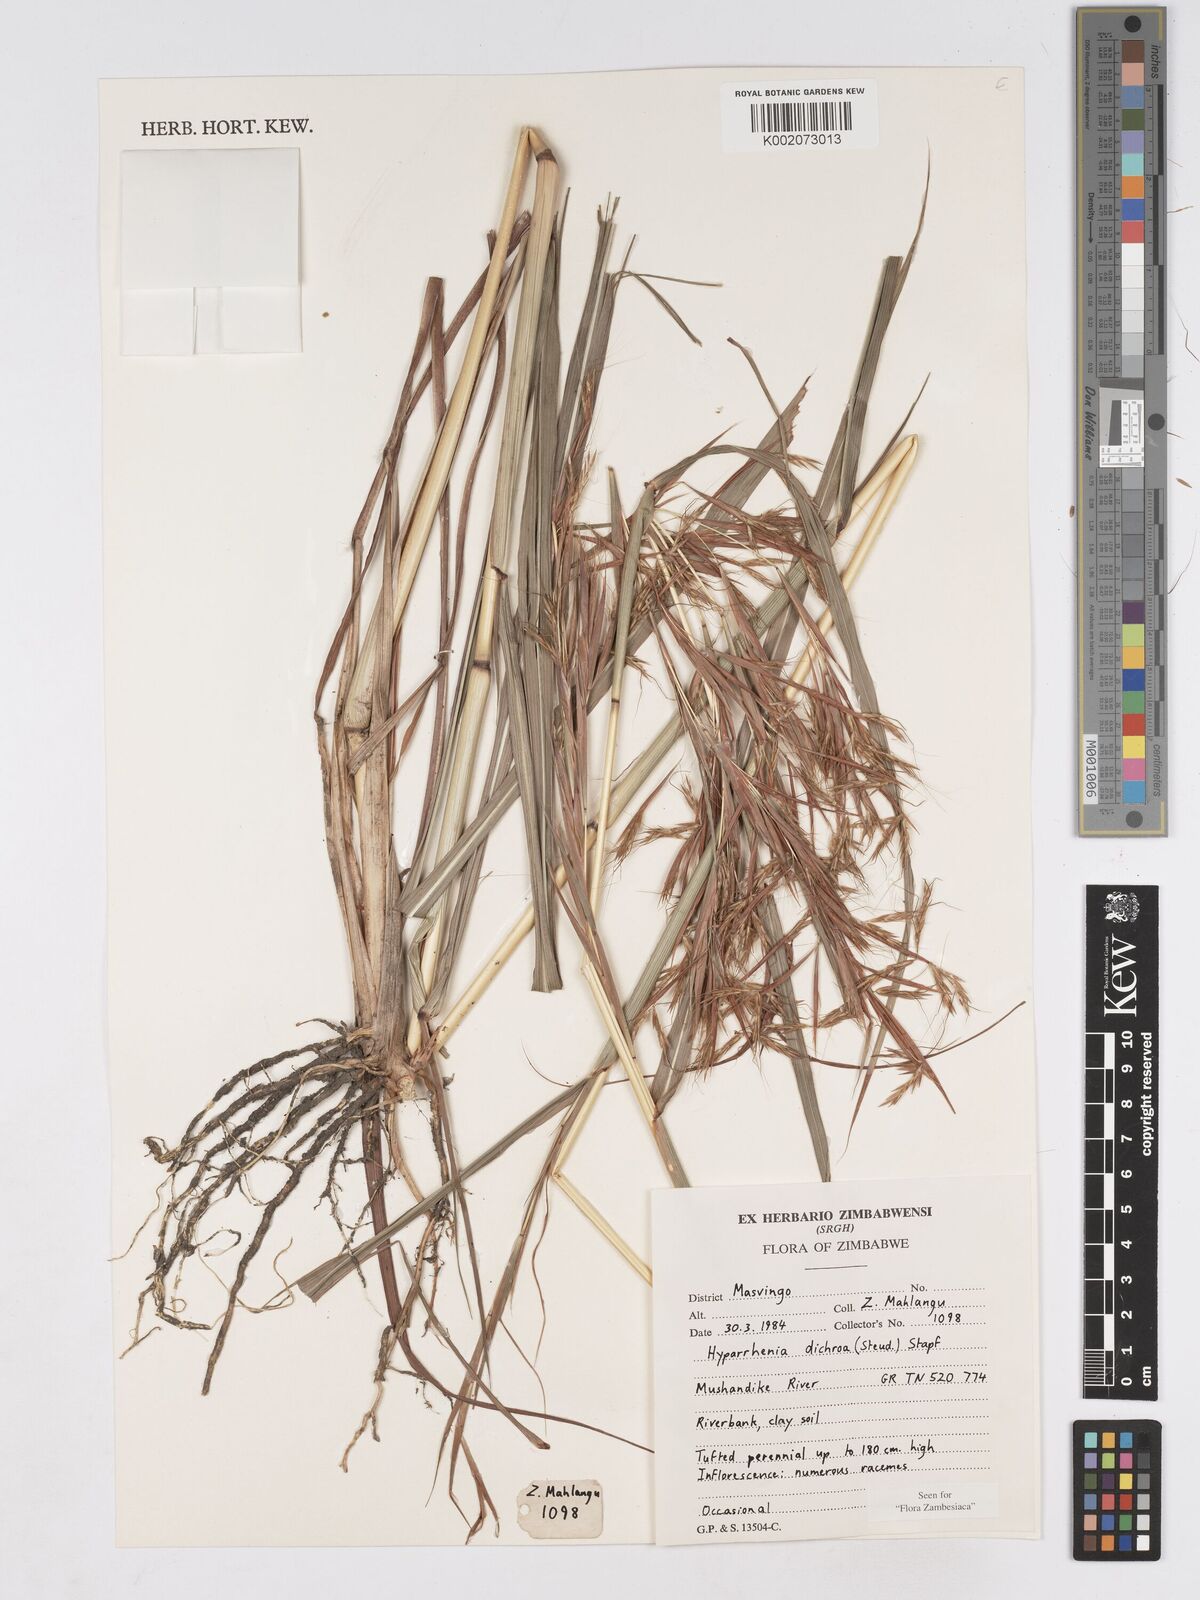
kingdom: Plantae
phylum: Tracheophyta
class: Liliopsida
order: Poales
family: Poaceae
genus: Hyparrhenia
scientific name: Hyparrhenia dichroa
